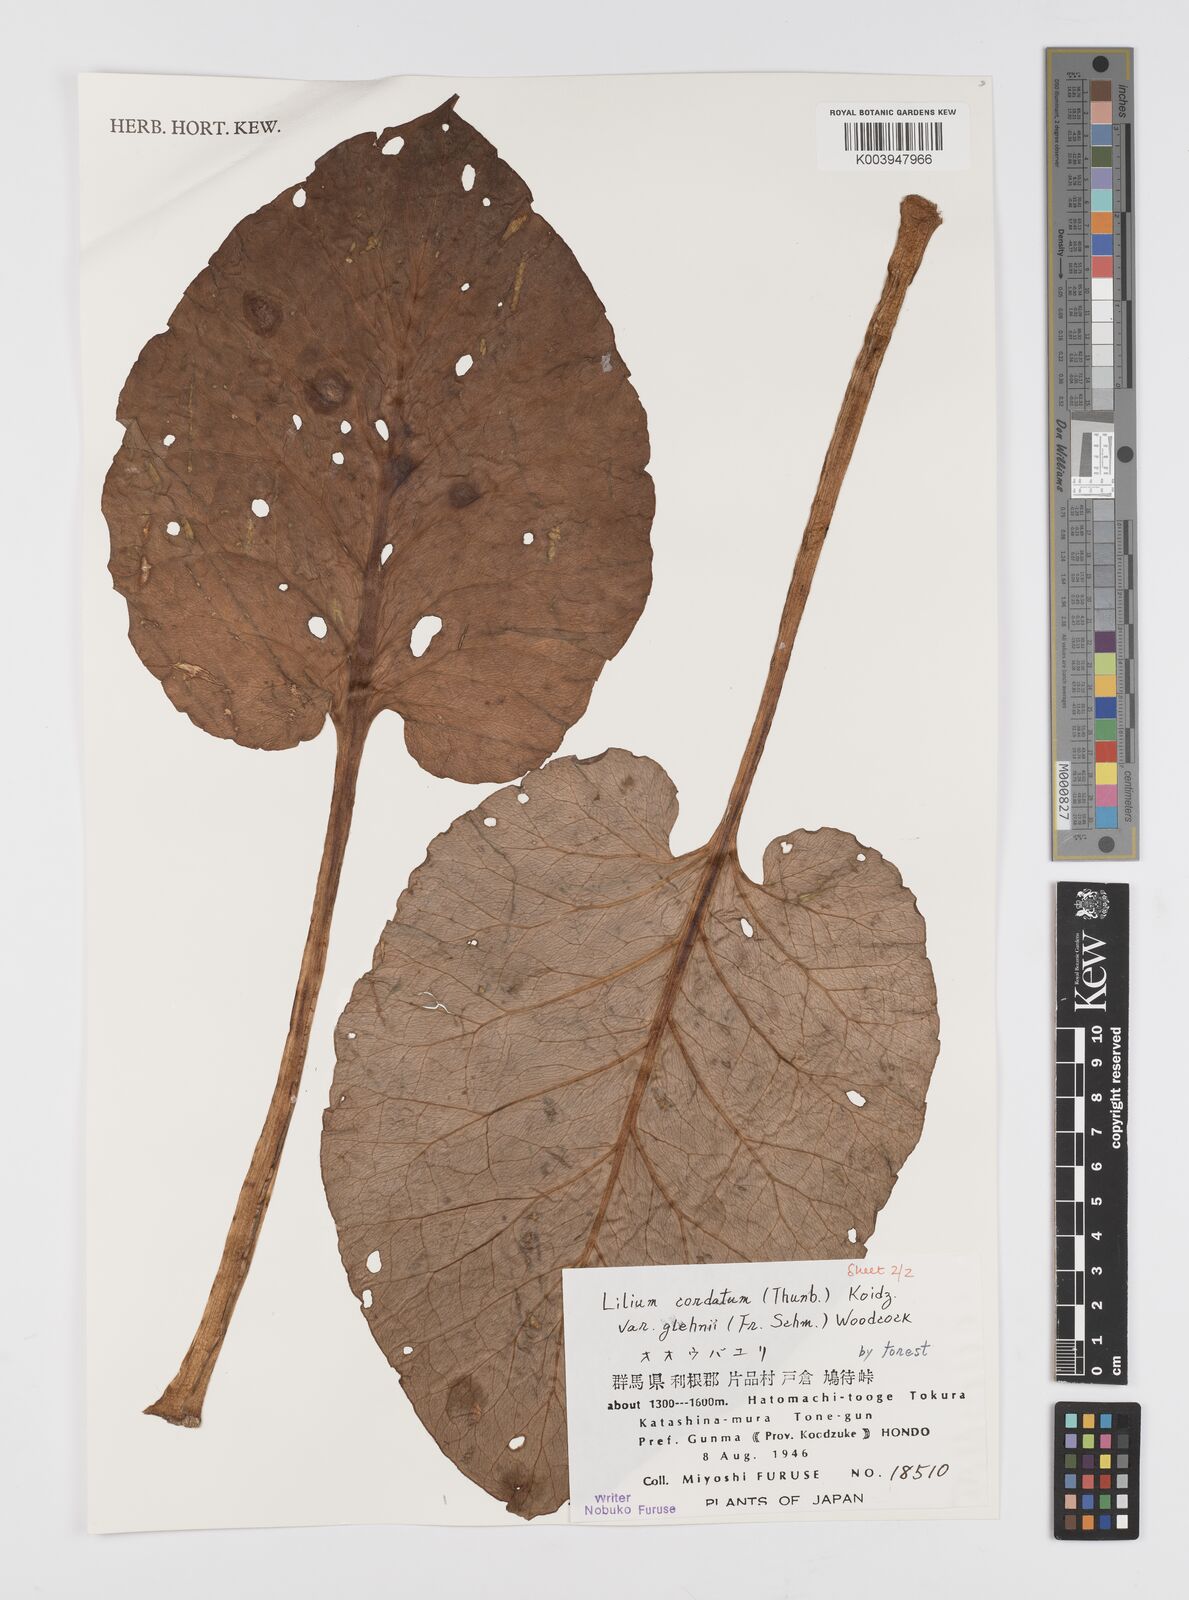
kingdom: Plantae
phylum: Tracheophyta
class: Liliopsida
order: Liliales
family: Liliaceae
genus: Cardiocrinum
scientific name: Cardiocrinum cordatum
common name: Lily
